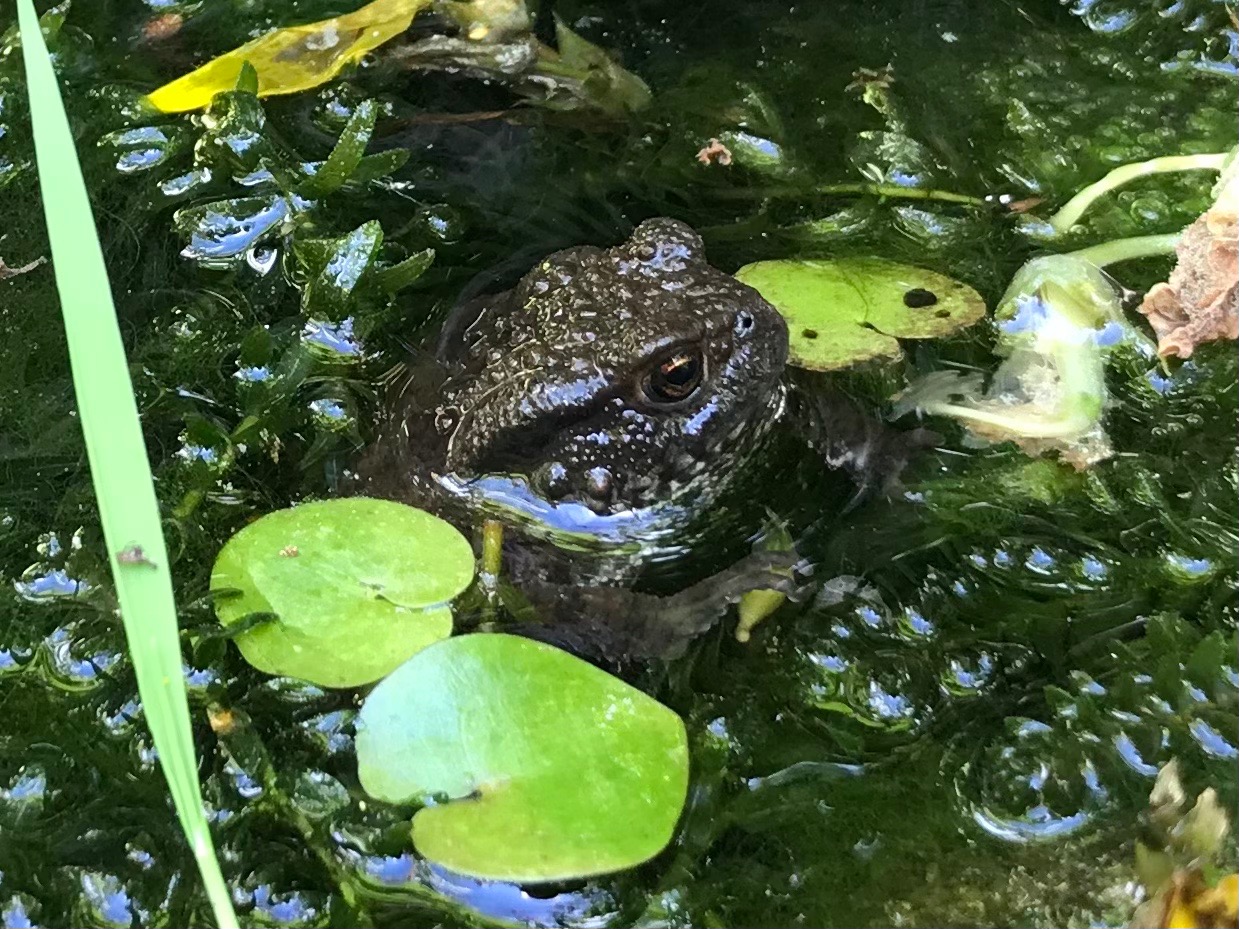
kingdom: Animalia
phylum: Chordata
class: Amphibia
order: Anura
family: Bufonidae
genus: Bufo
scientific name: Bufo bufo
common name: Skrubtudse
